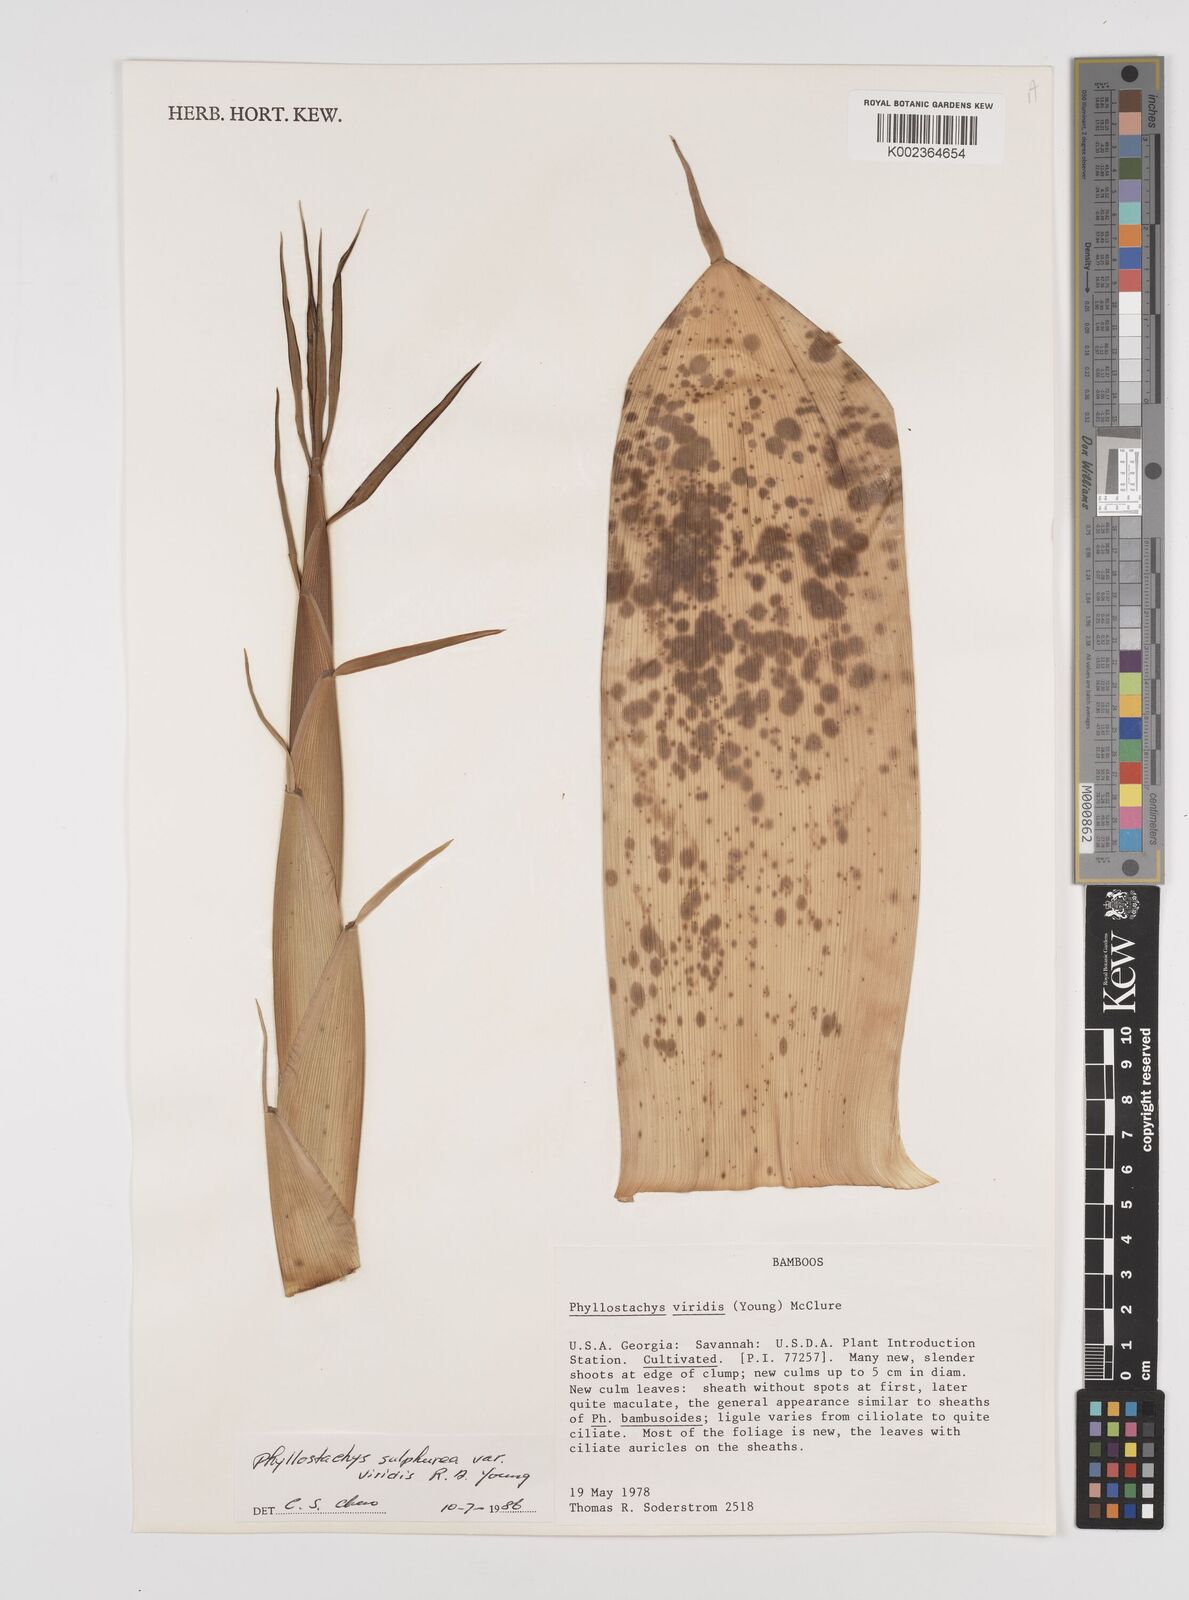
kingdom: Plantae
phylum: Tracheophyta
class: Liliopsida
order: Poales
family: Poaceae
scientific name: Poaceae
